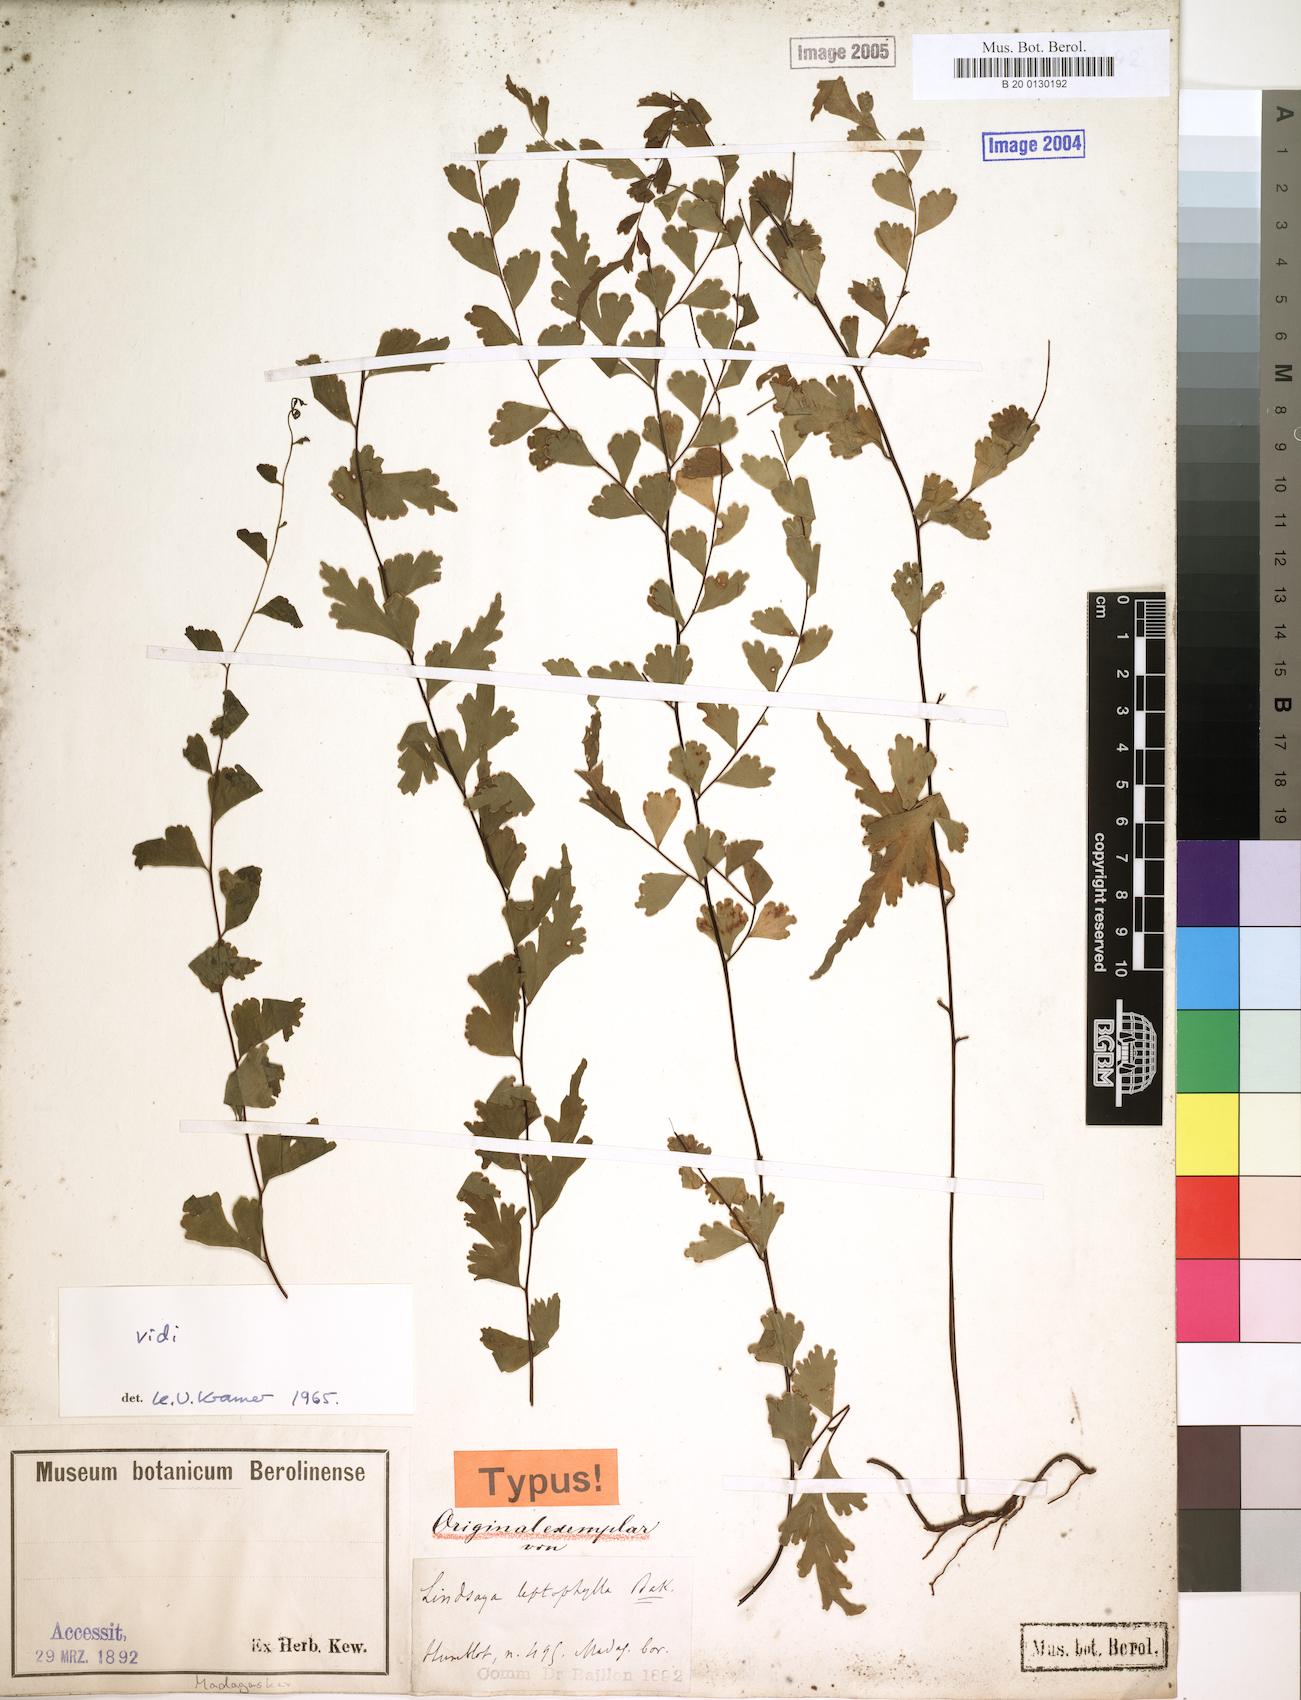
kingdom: Plantae
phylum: Tracheophyta
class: Polypodiopsida
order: Polypodiales
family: Lindsaeaceae
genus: Lindsaea
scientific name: Lindsaea leptophylla
